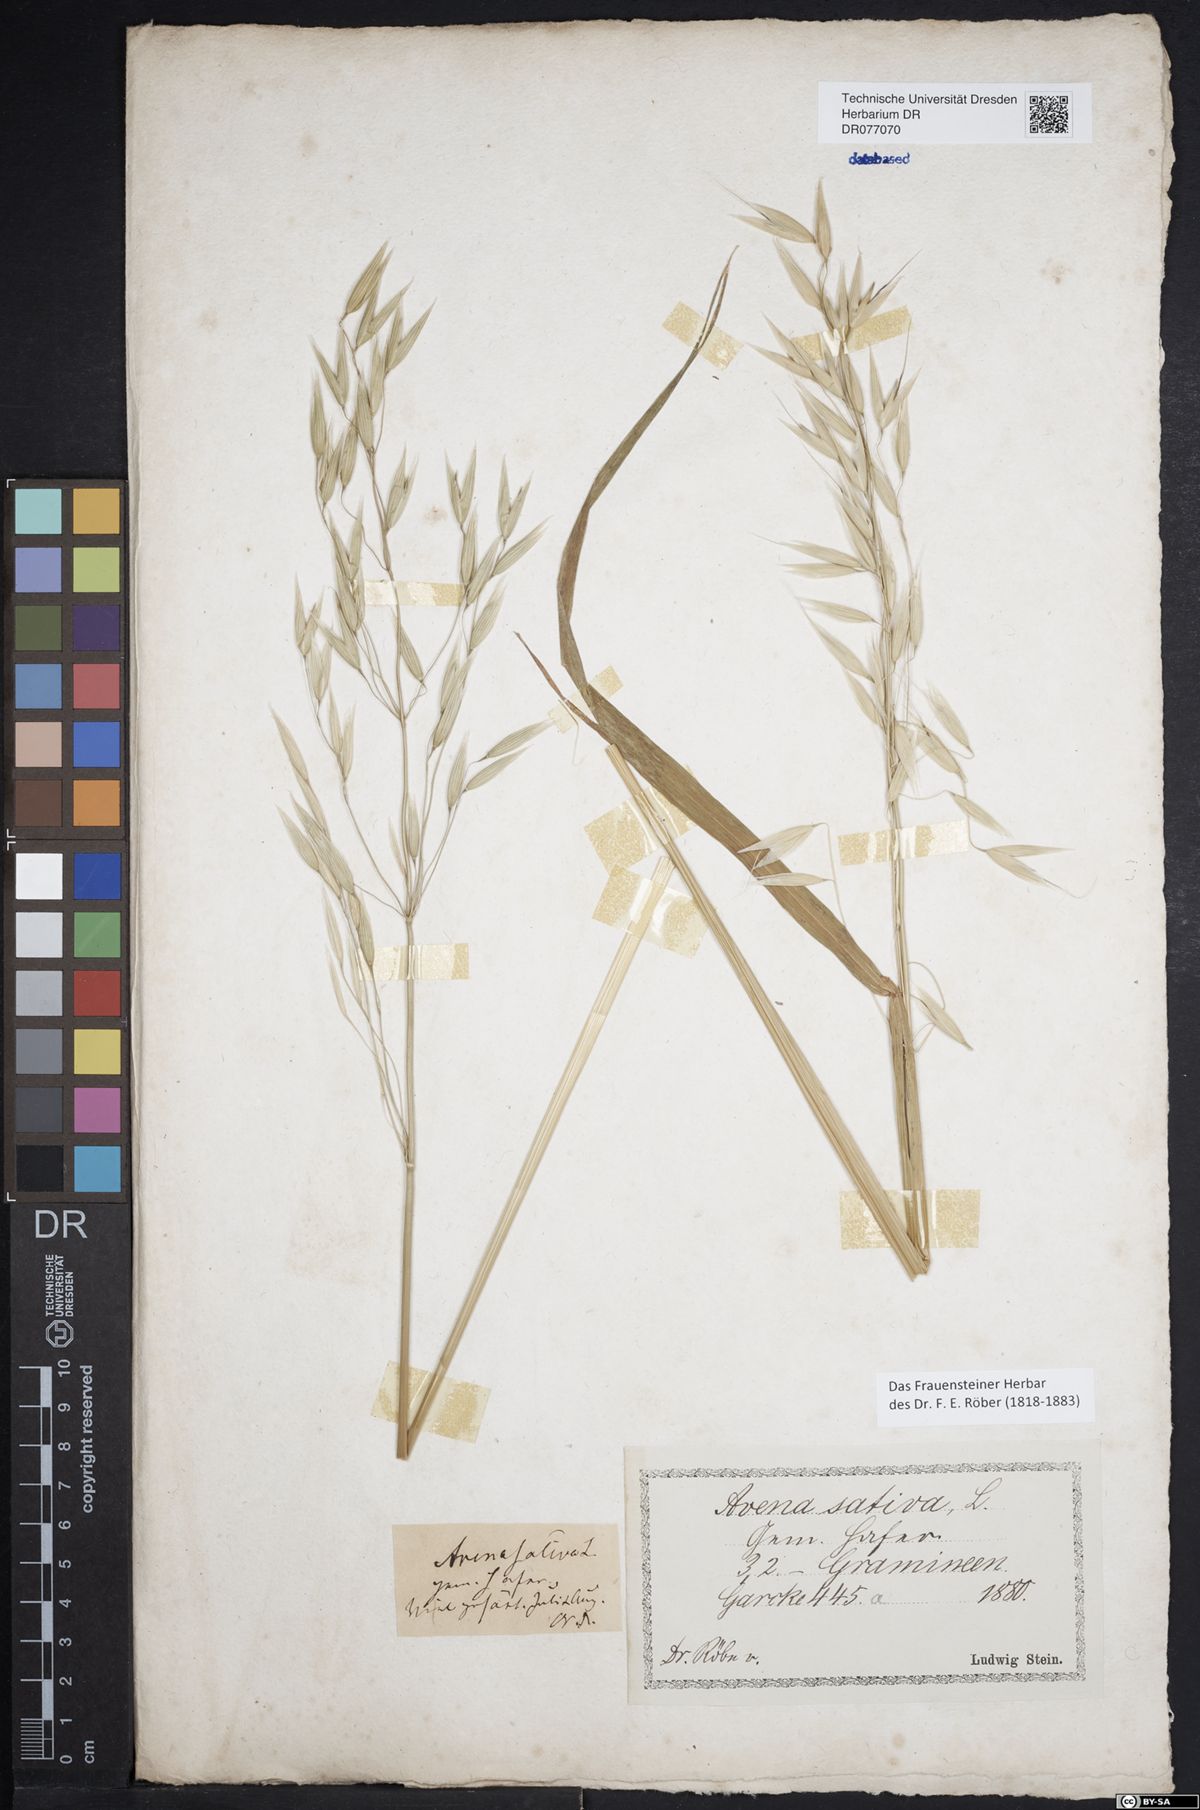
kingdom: Plantae
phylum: Tracheophyta
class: Liliopsida
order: Poales
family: Poaceae
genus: Avena
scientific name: Avena sativa
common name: Oat
